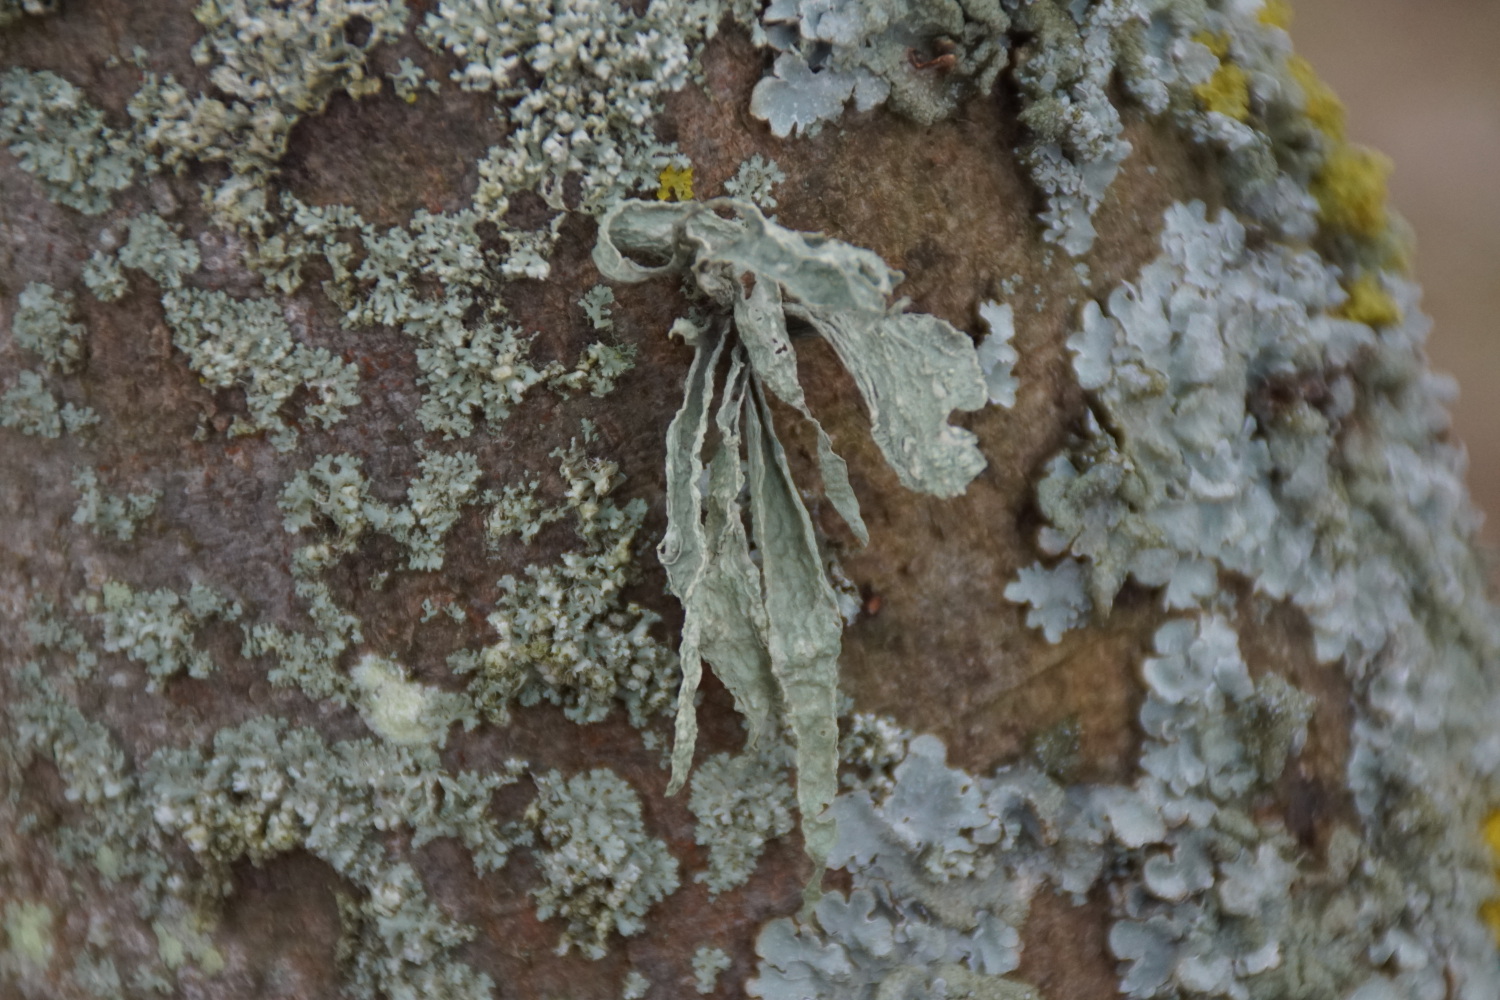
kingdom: Fungi
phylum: Ascomycota
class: Lecanoromycetes
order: Lecanorales
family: Ramalinaceae
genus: Ramalina
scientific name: Ramalina fraxinea
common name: stor grenlav
